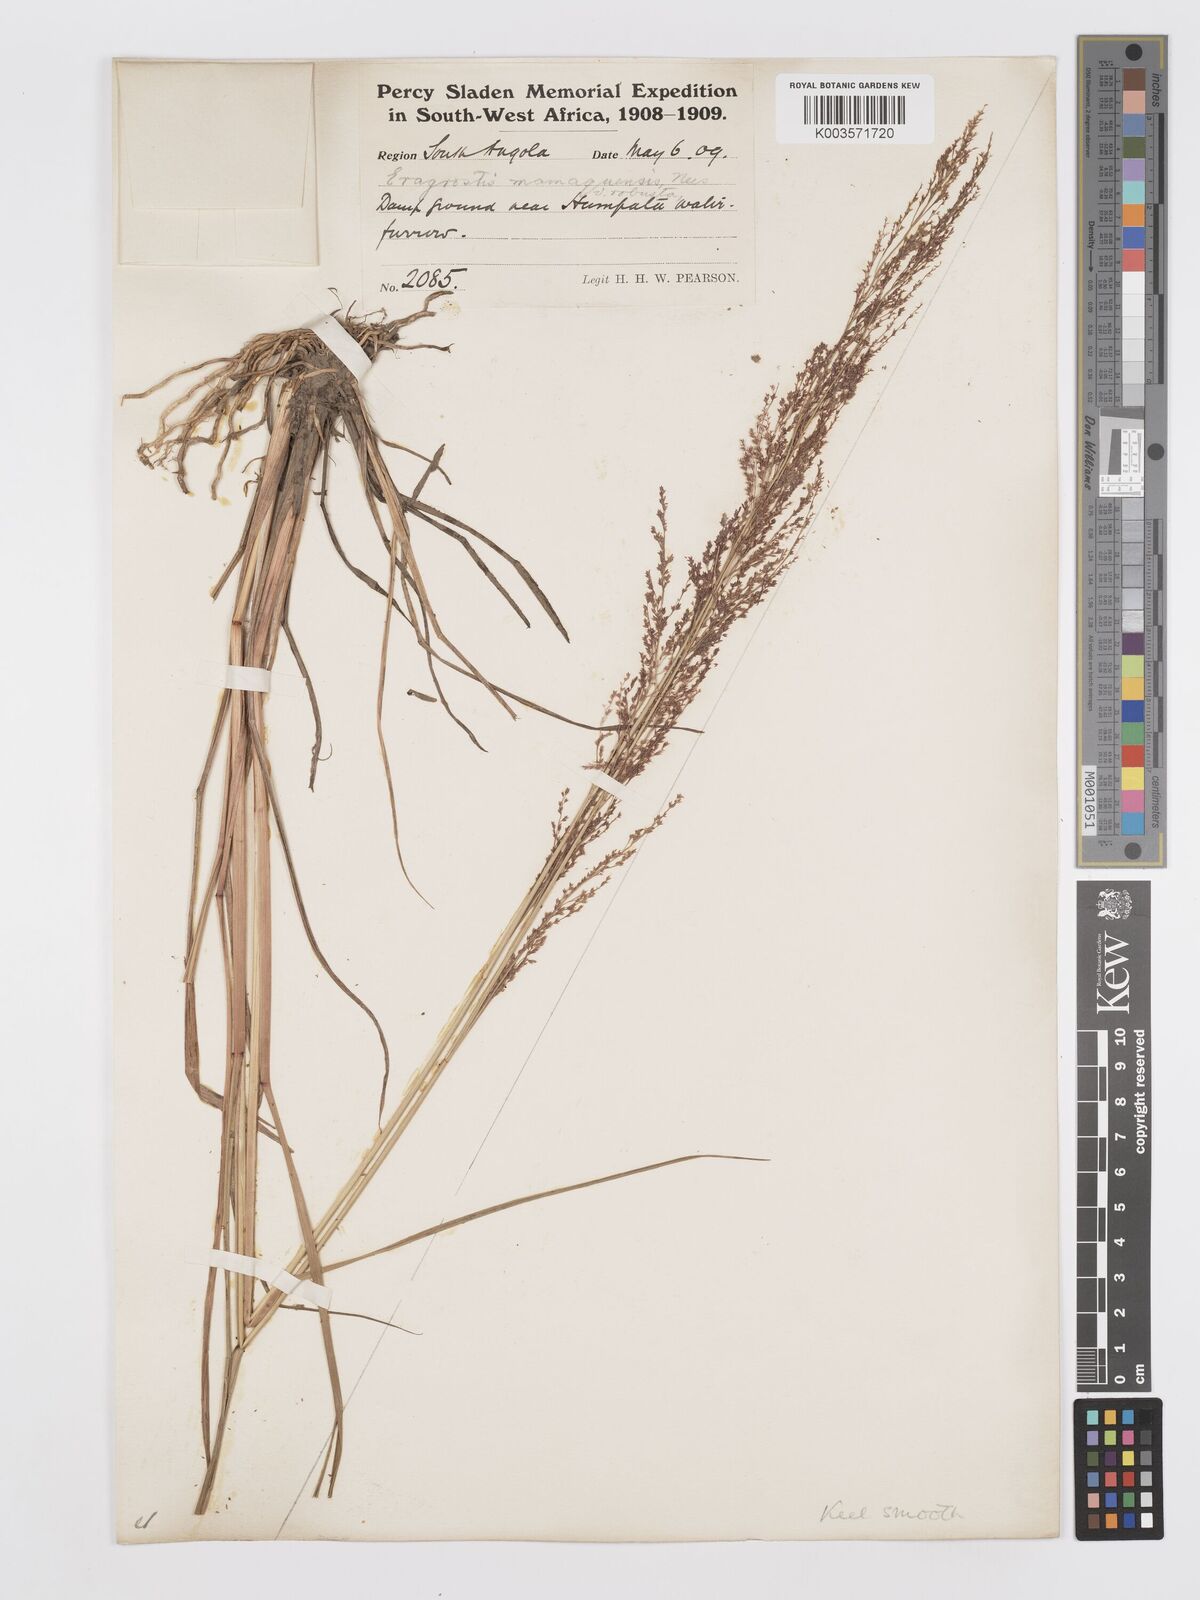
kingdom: Plantae
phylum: Tracheophyta
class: Liliopsida
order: Poales
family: Poaceae
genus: Eragrostis
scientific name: Eragrostis japonica
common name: Pond lovegrass
